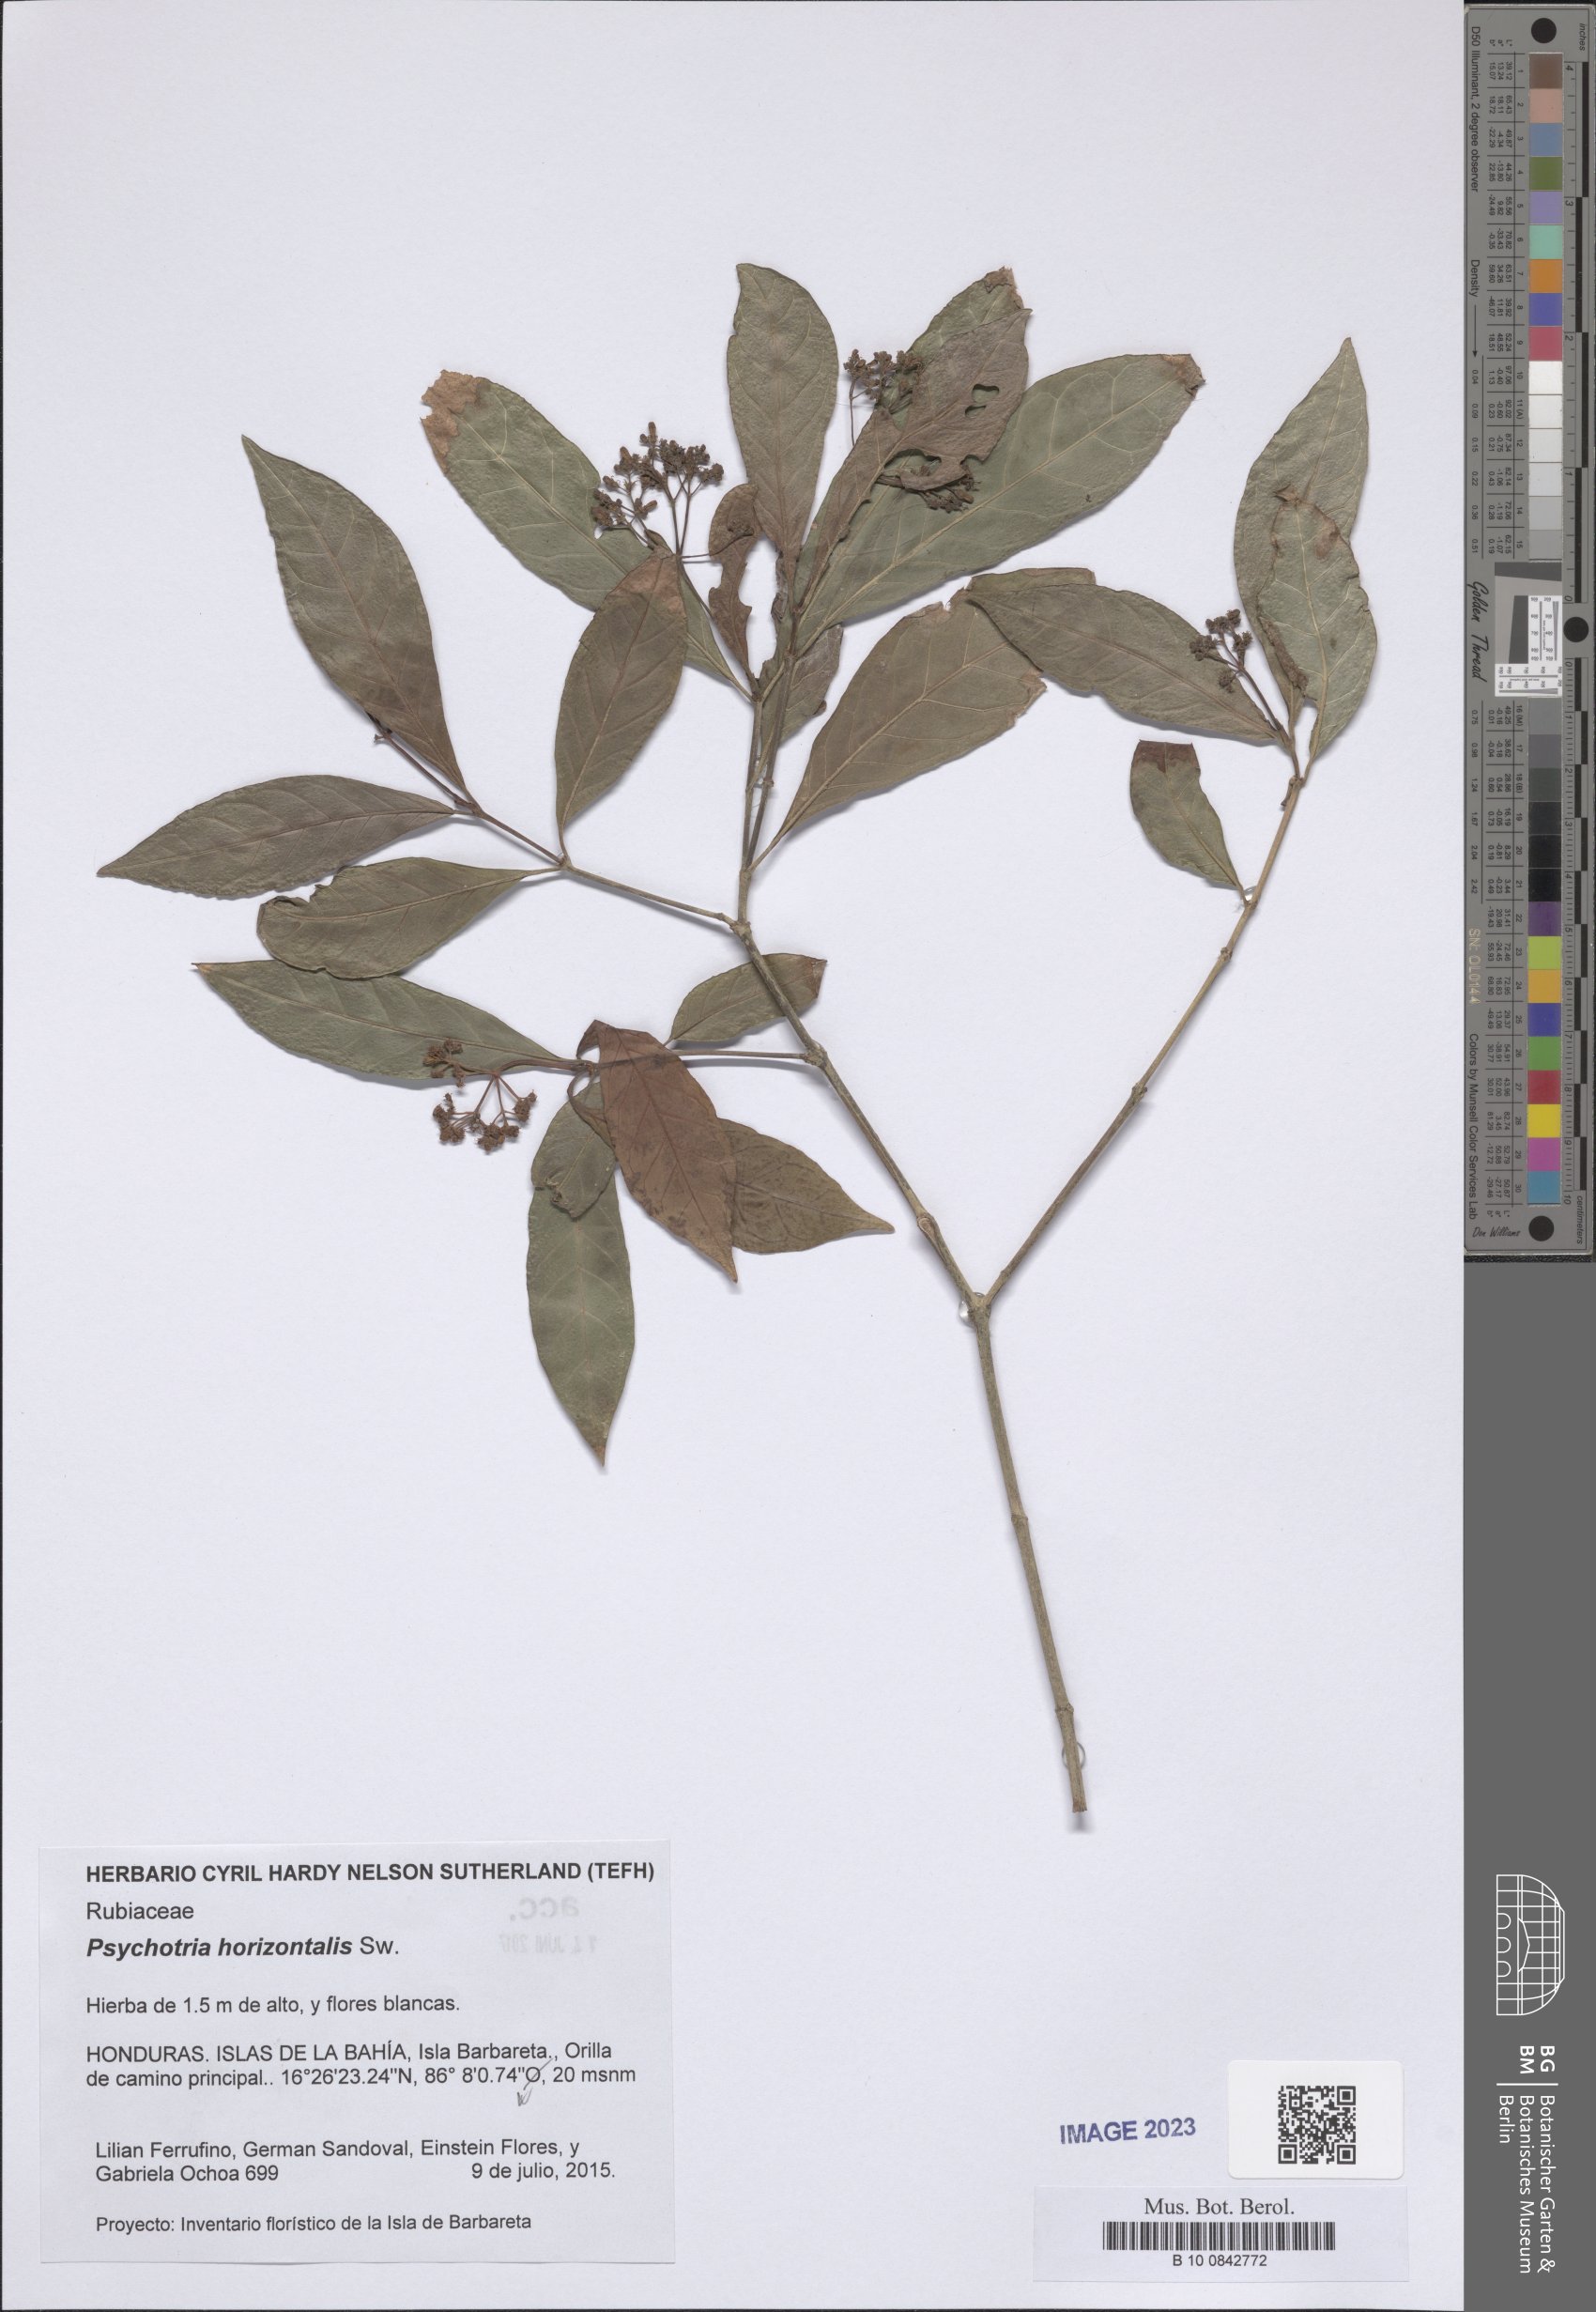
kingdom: Plantae
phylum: Tracheophyta
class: Magnoliopsida
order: Gentianales
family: Rubiaceae
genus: Psychotria
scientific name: Psychotria horizontalis
